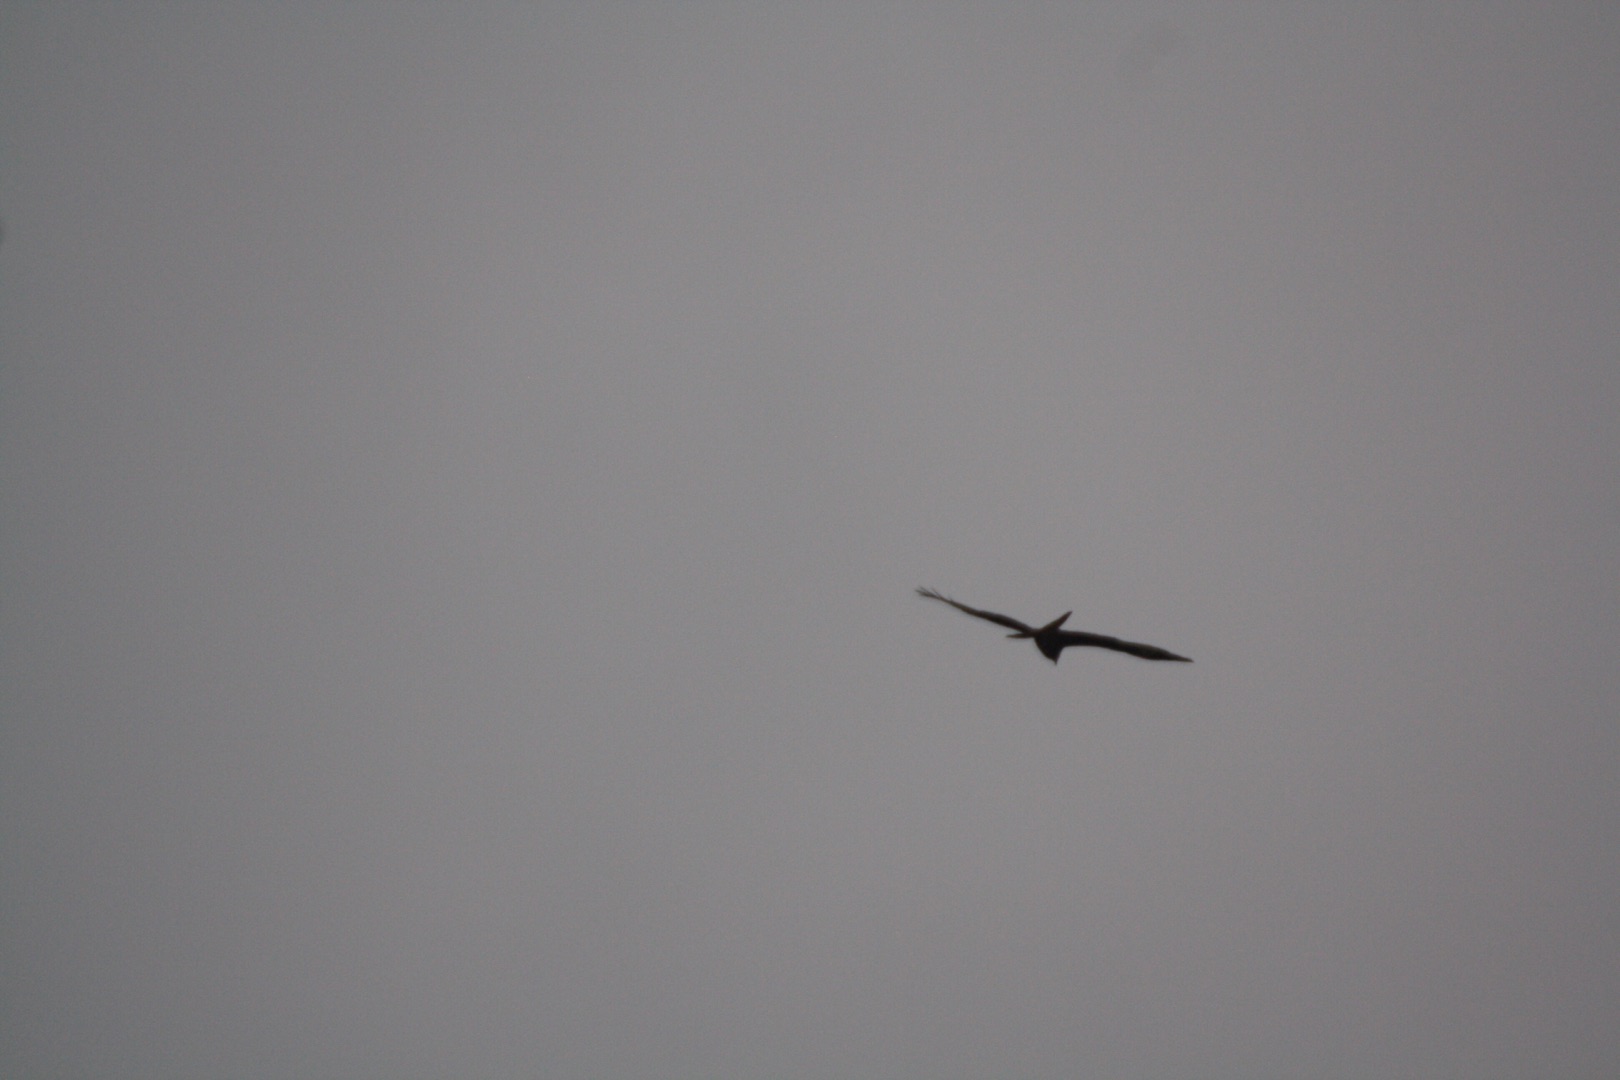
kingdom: Animalia
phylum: Chordata
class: Aves
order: Accipitriformes
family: Accipitridae
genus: Milvus
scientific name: Milvus milvus
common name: Rød glente
